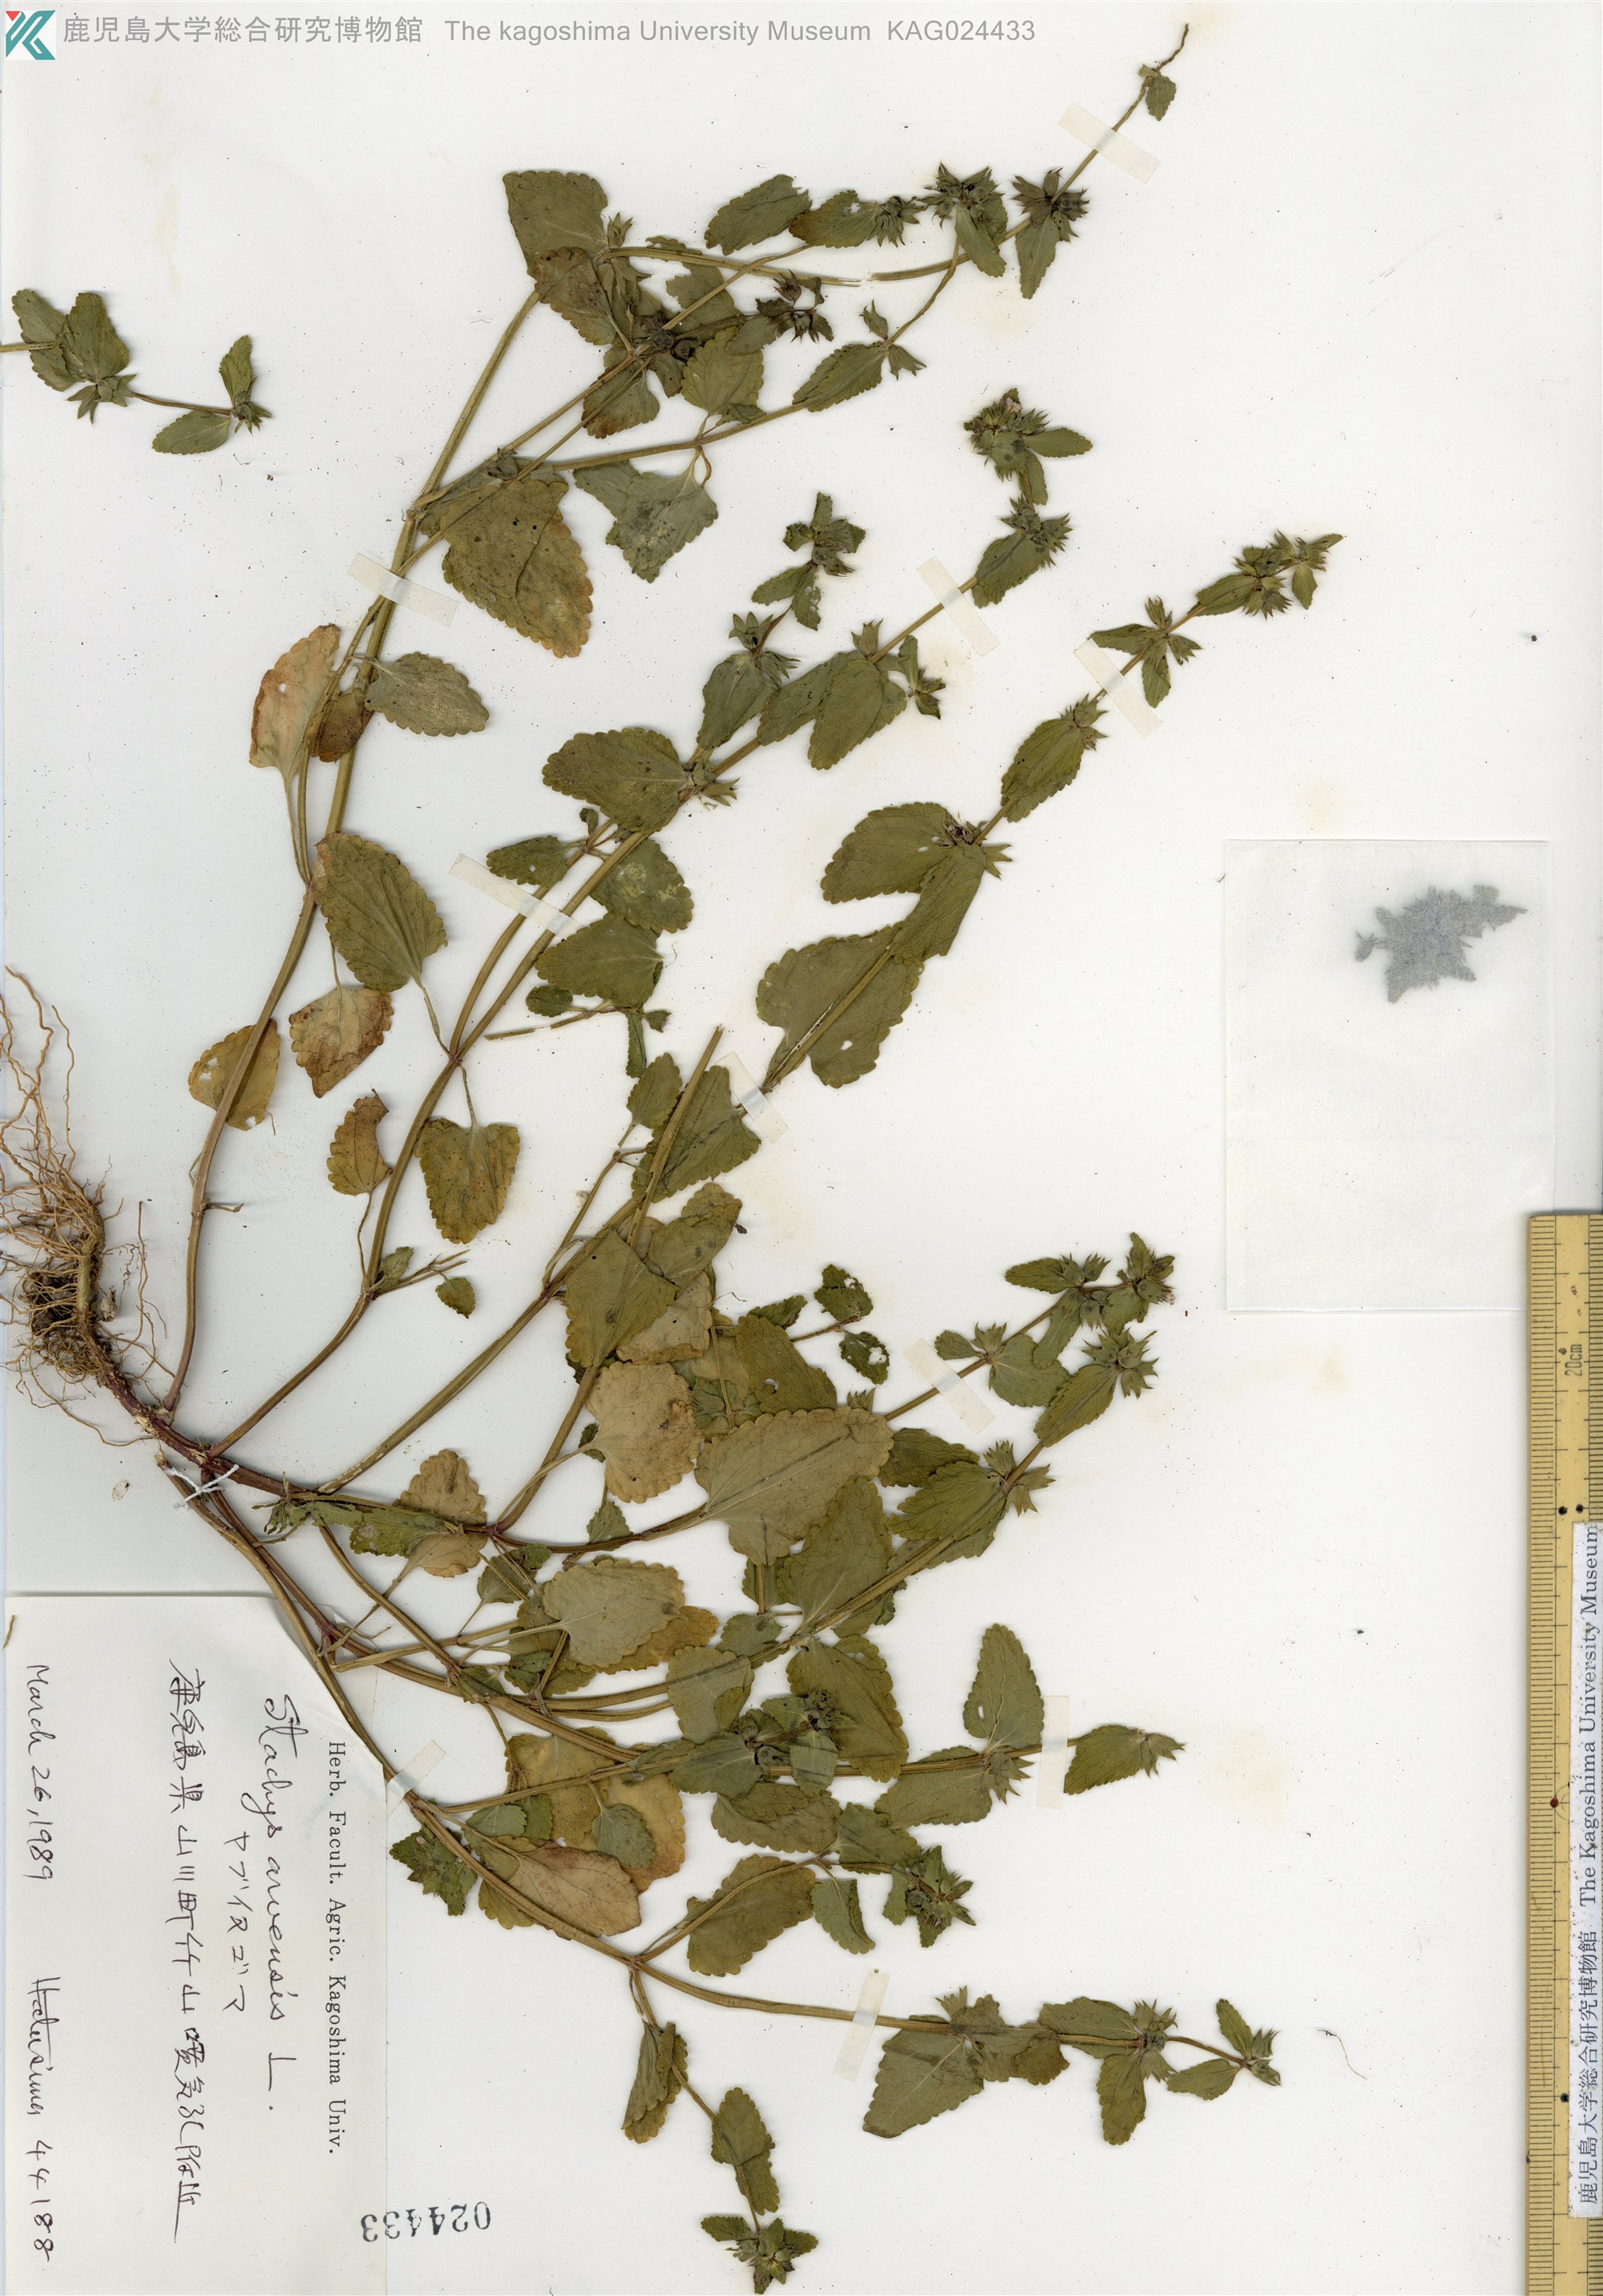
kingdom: Plantae
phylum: Tracheophyta
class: Magnoliopsida
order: Lamiales
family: Lamiaceae
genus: Stachys
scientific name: Stachys arvensis
